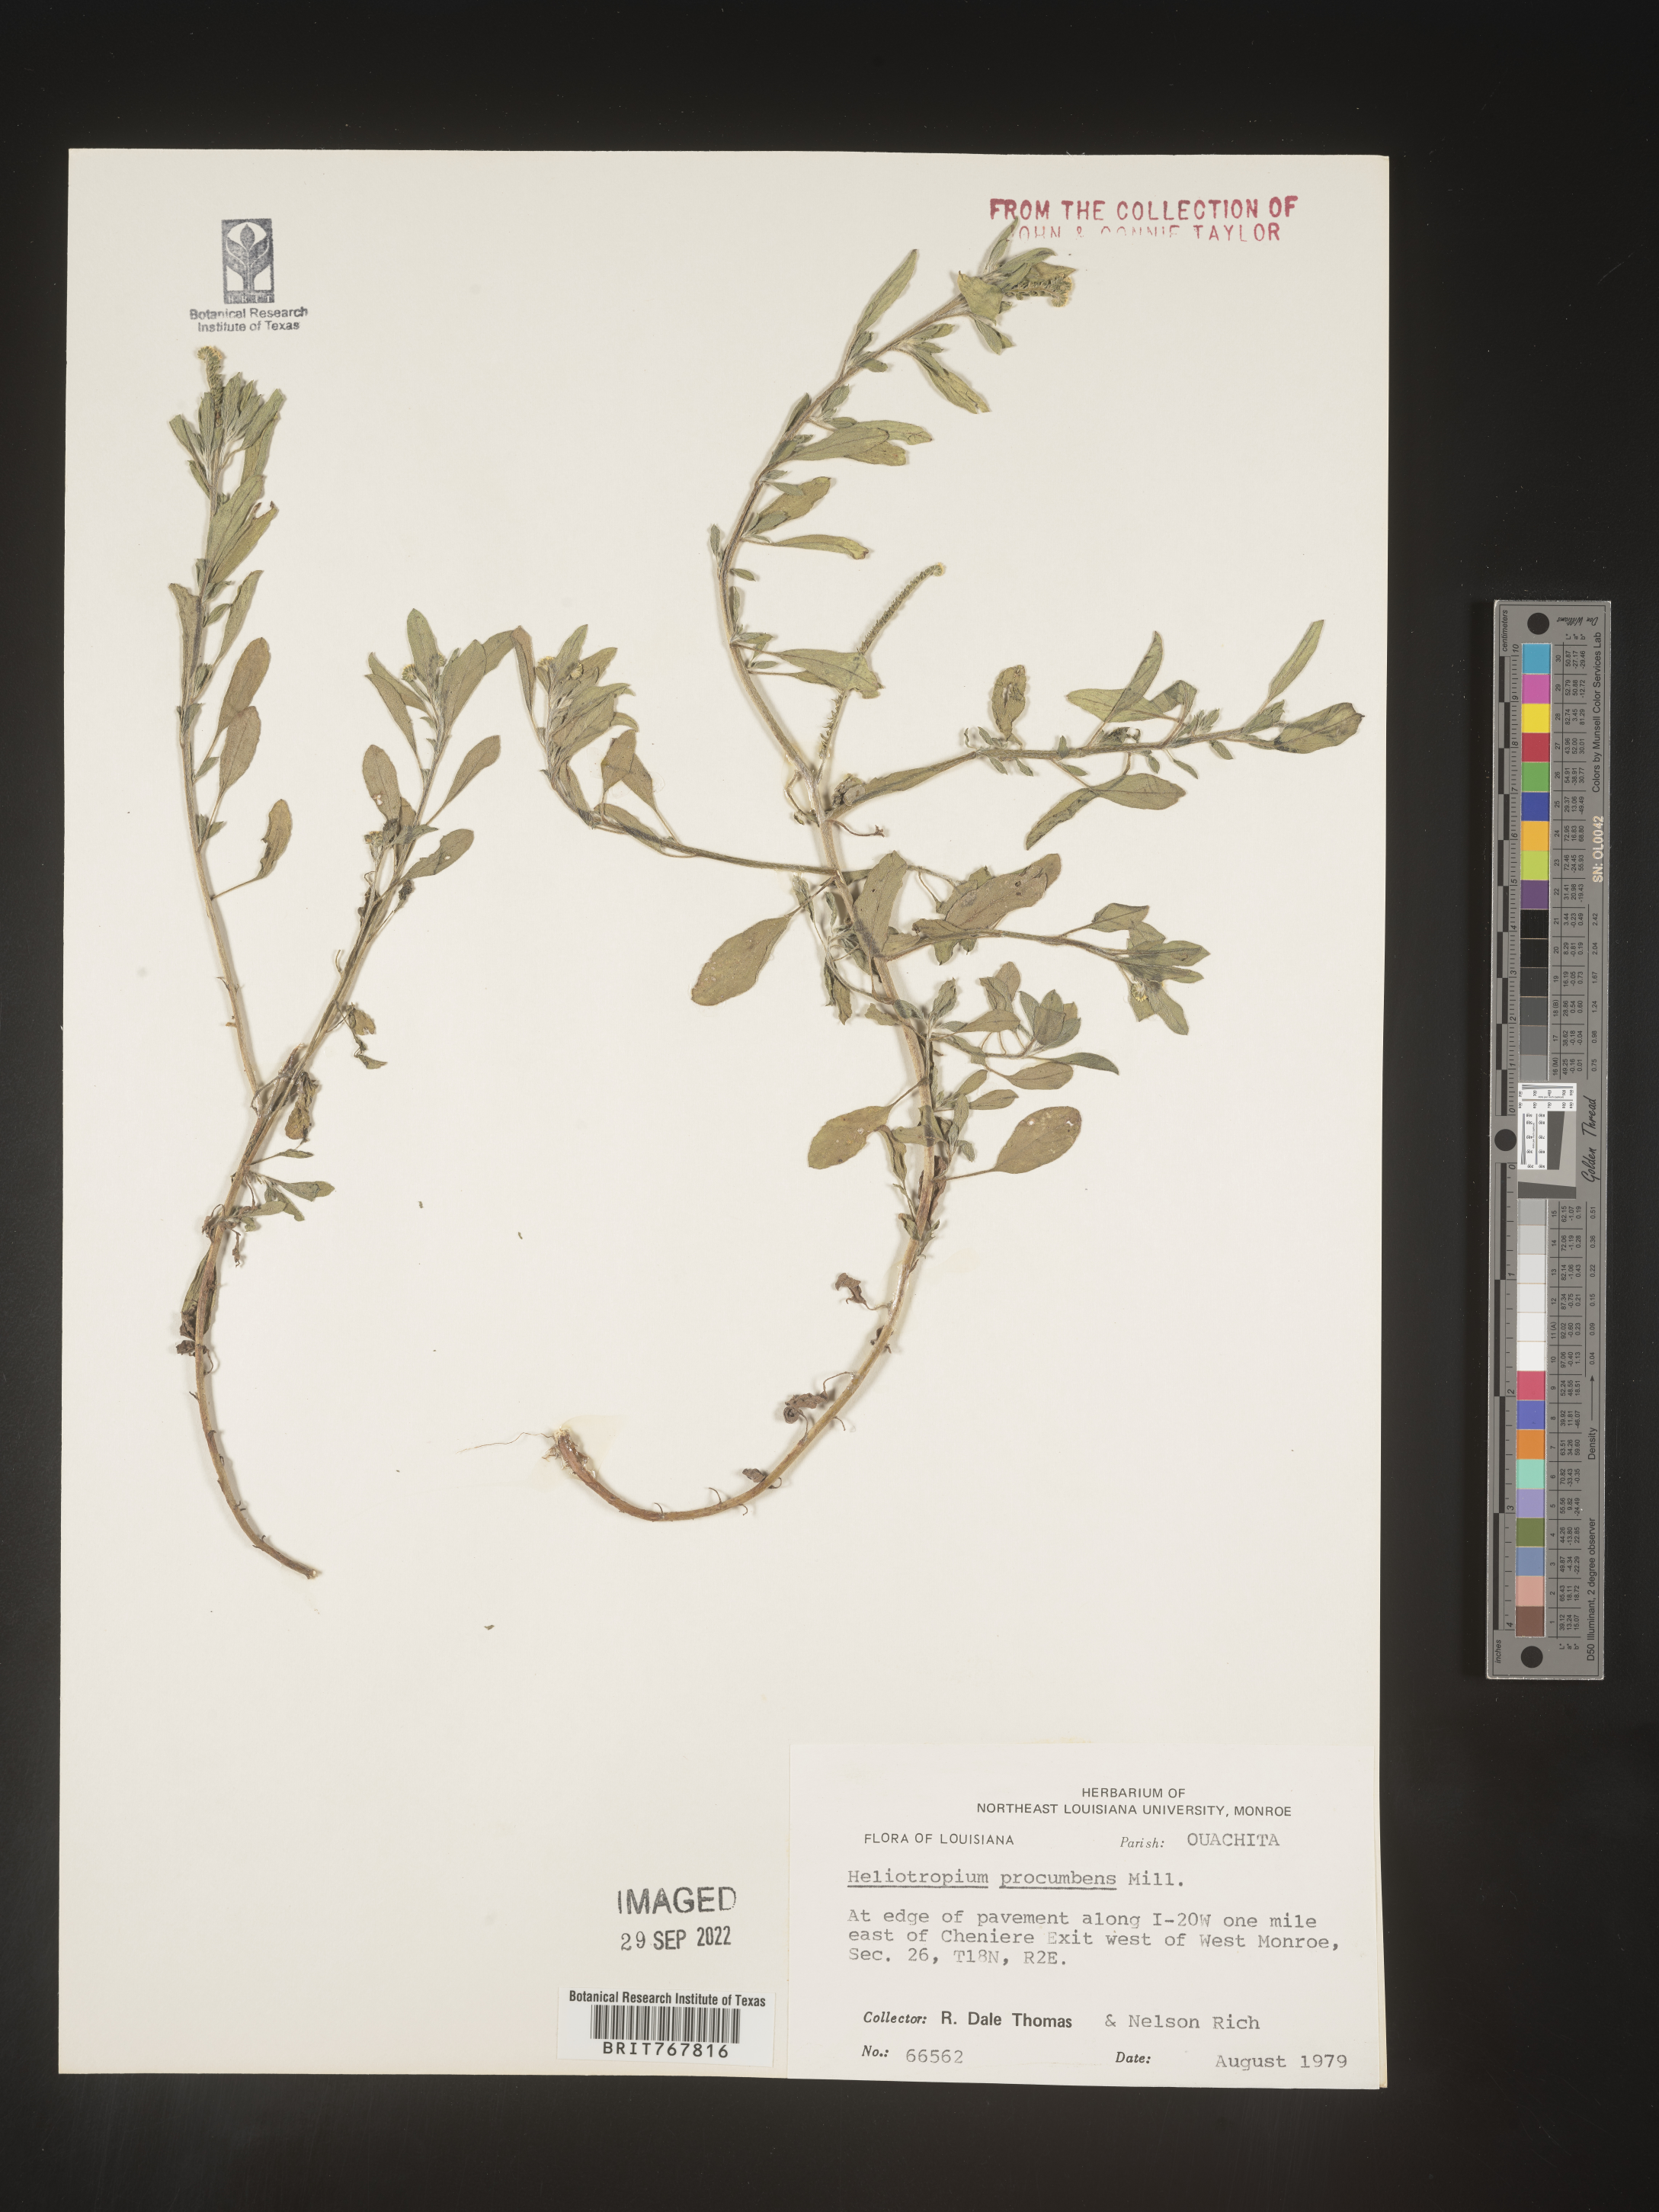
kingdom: Plantae
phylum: Tracheophyta
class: Magnoliopsida
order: Boraginales
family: Heliotropiaceae
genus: Heliotropium
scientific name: Heliotropium
